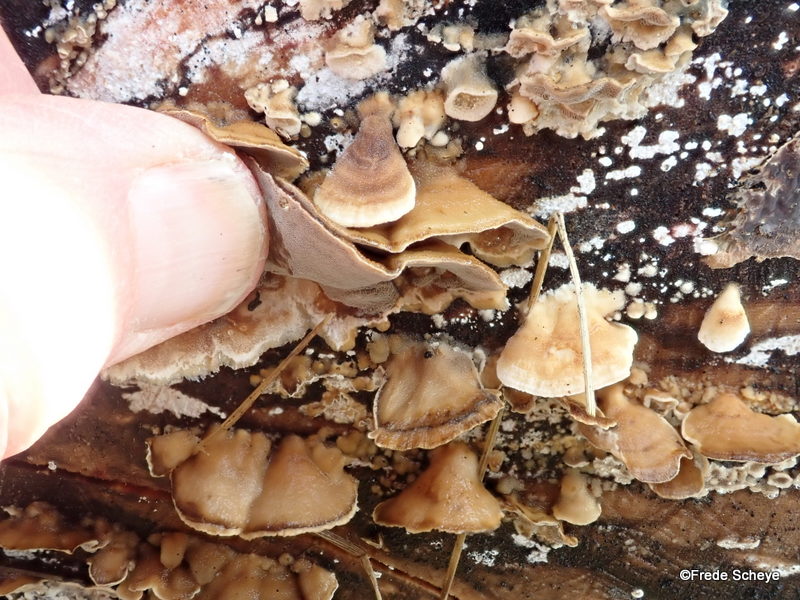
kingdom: Fungi
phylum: Basidiomycota
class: Agaricomycetes
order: Polyporales
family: Phanerochaetaceae
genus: Bjerkandera
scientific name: Bjerkandera adusta
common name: sveden sodporesvamp
